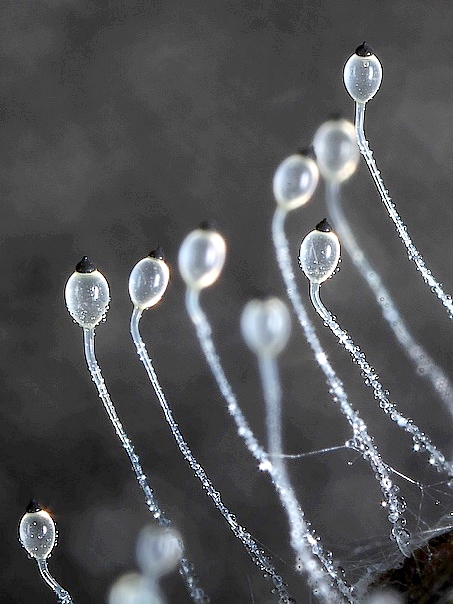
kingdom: Fungi
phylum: Mucoromycota
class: Mucoromycetes
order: Mucorales
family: Pilobolaceae
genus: Pilobolus
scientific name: Pilobolus umbonatus
